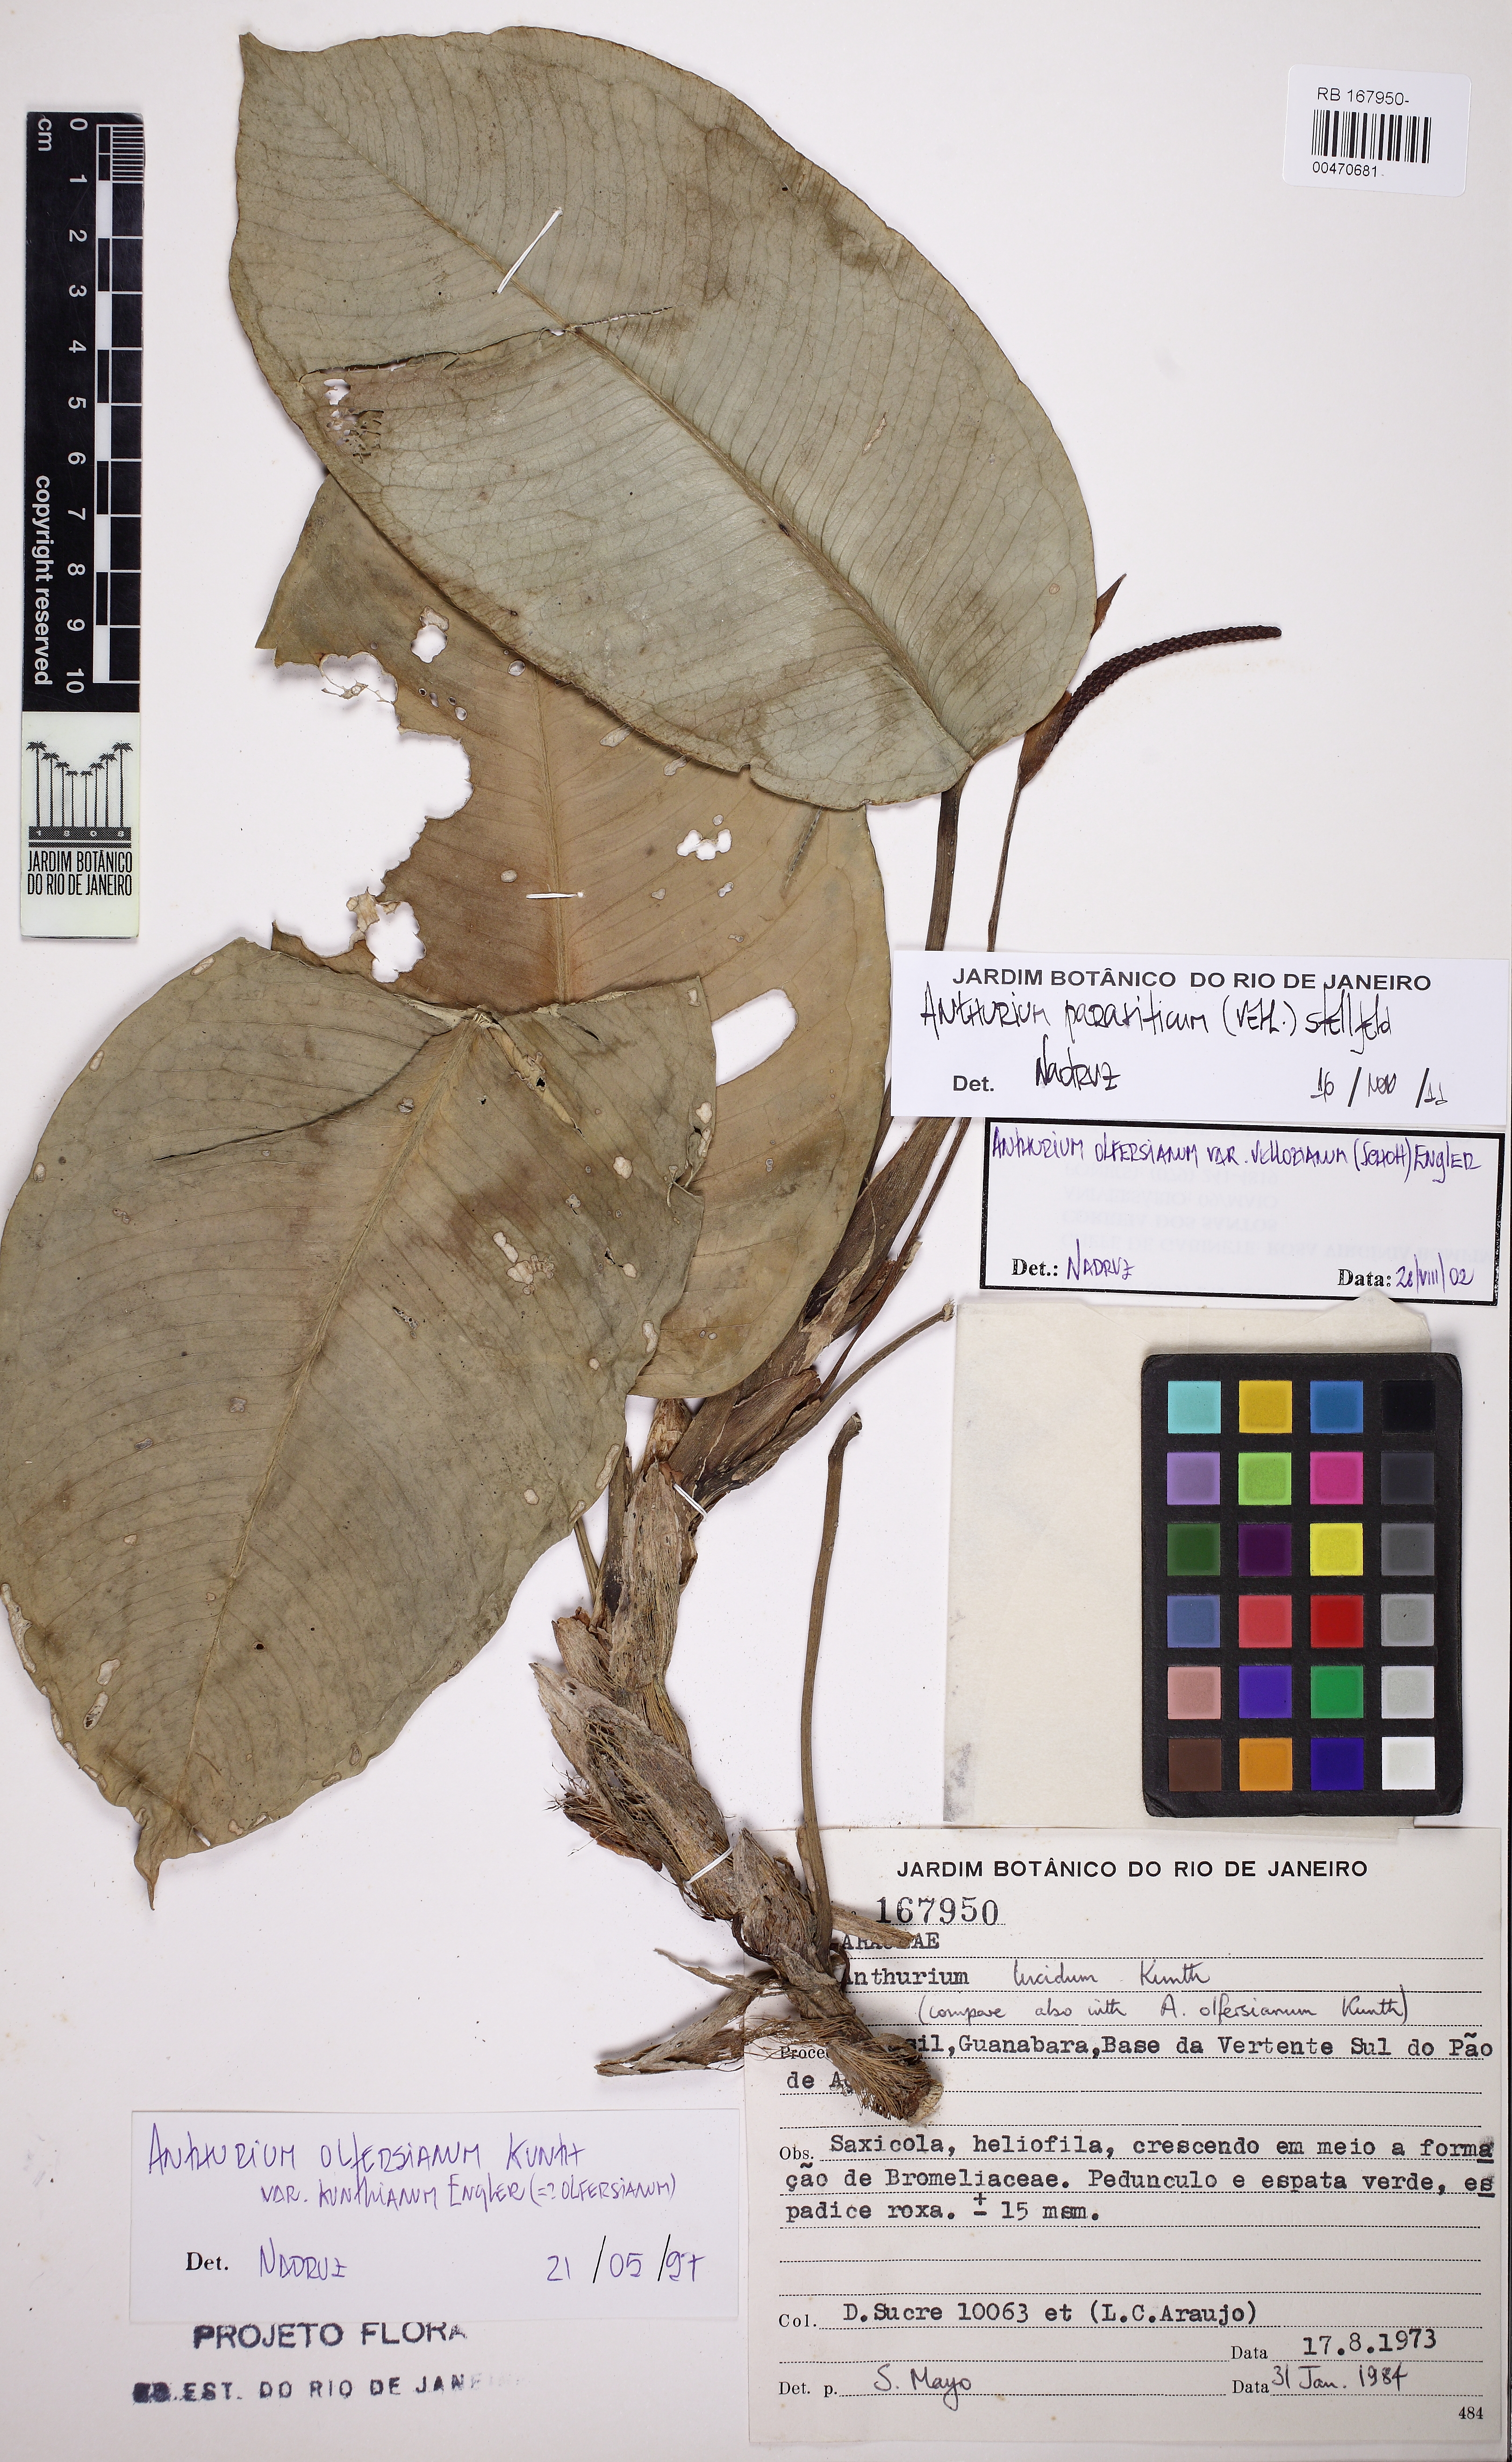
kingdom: Plantae
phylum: Tracheophyta
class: Liliopsida
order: Alismatales
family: Araceae
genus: Anthurium
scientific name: Anthurium parasiticum
